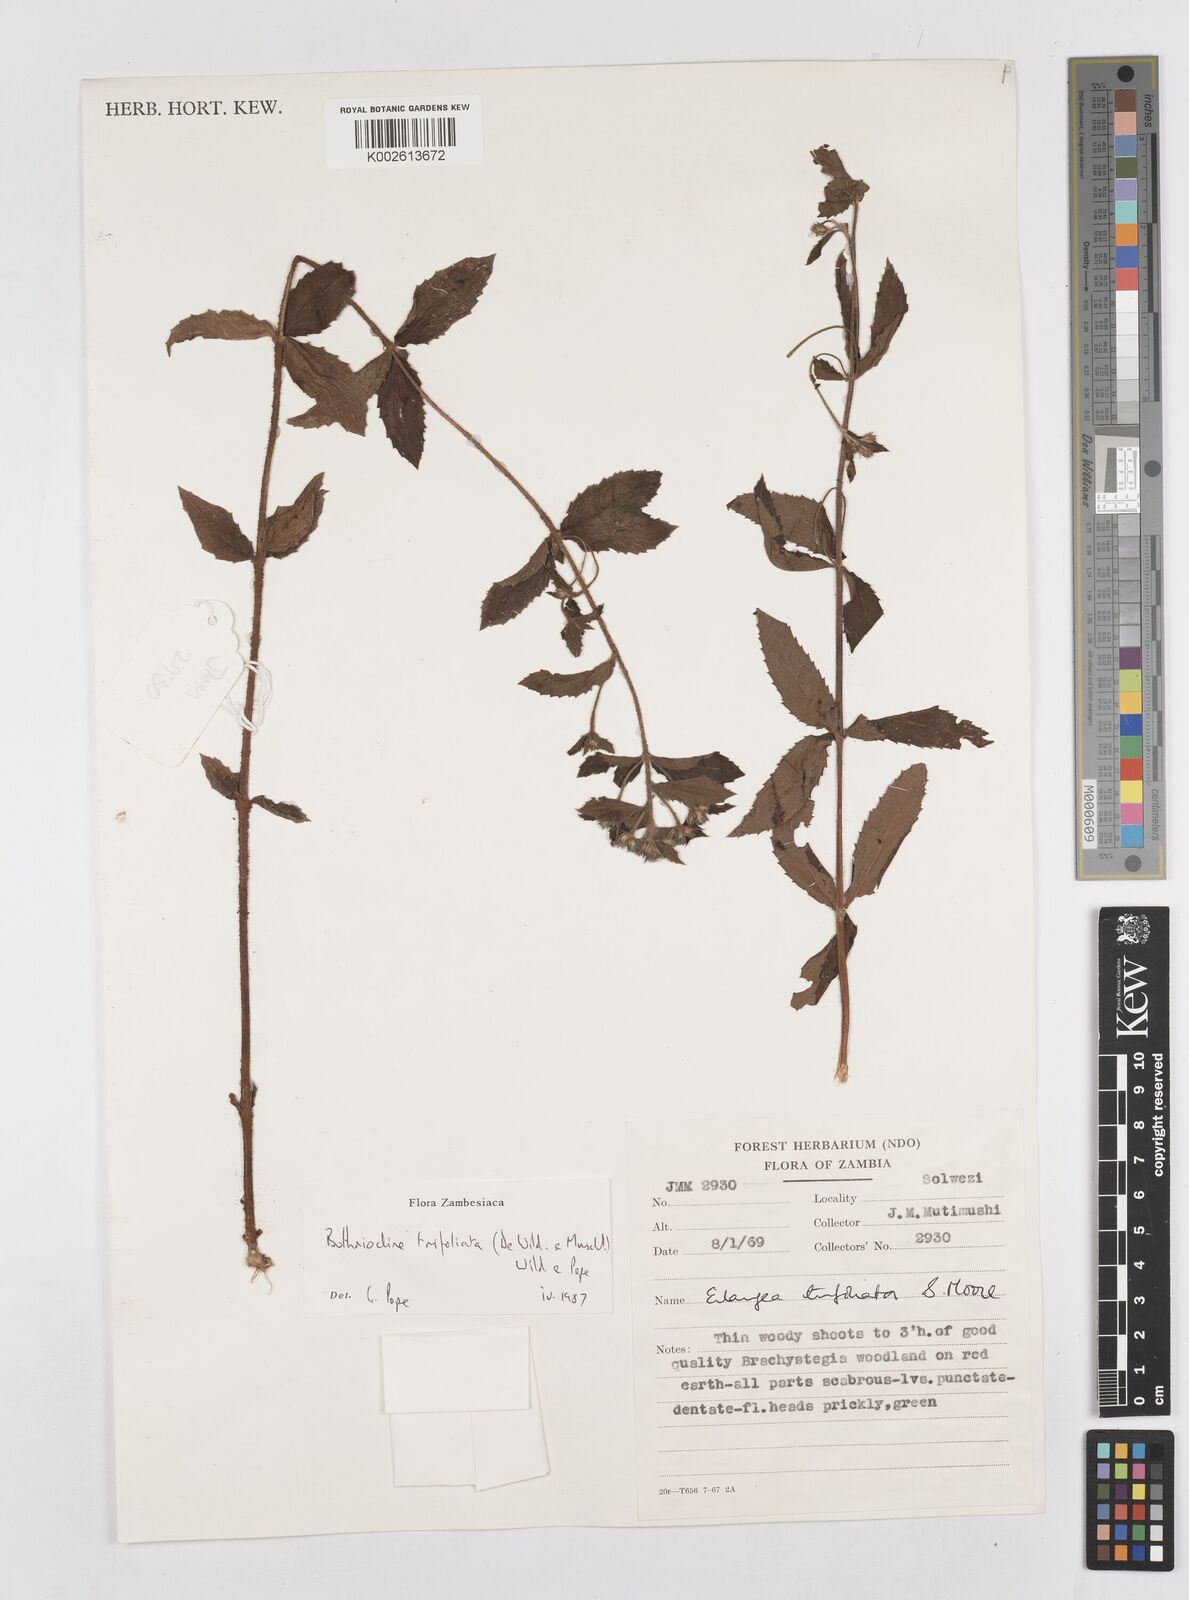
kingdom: Plantae
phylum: Tracheophyta
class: Magnoliopsida
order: Asterales
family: Asteraceae
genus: Bothriocline
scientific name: Bothriocline trifoliata
